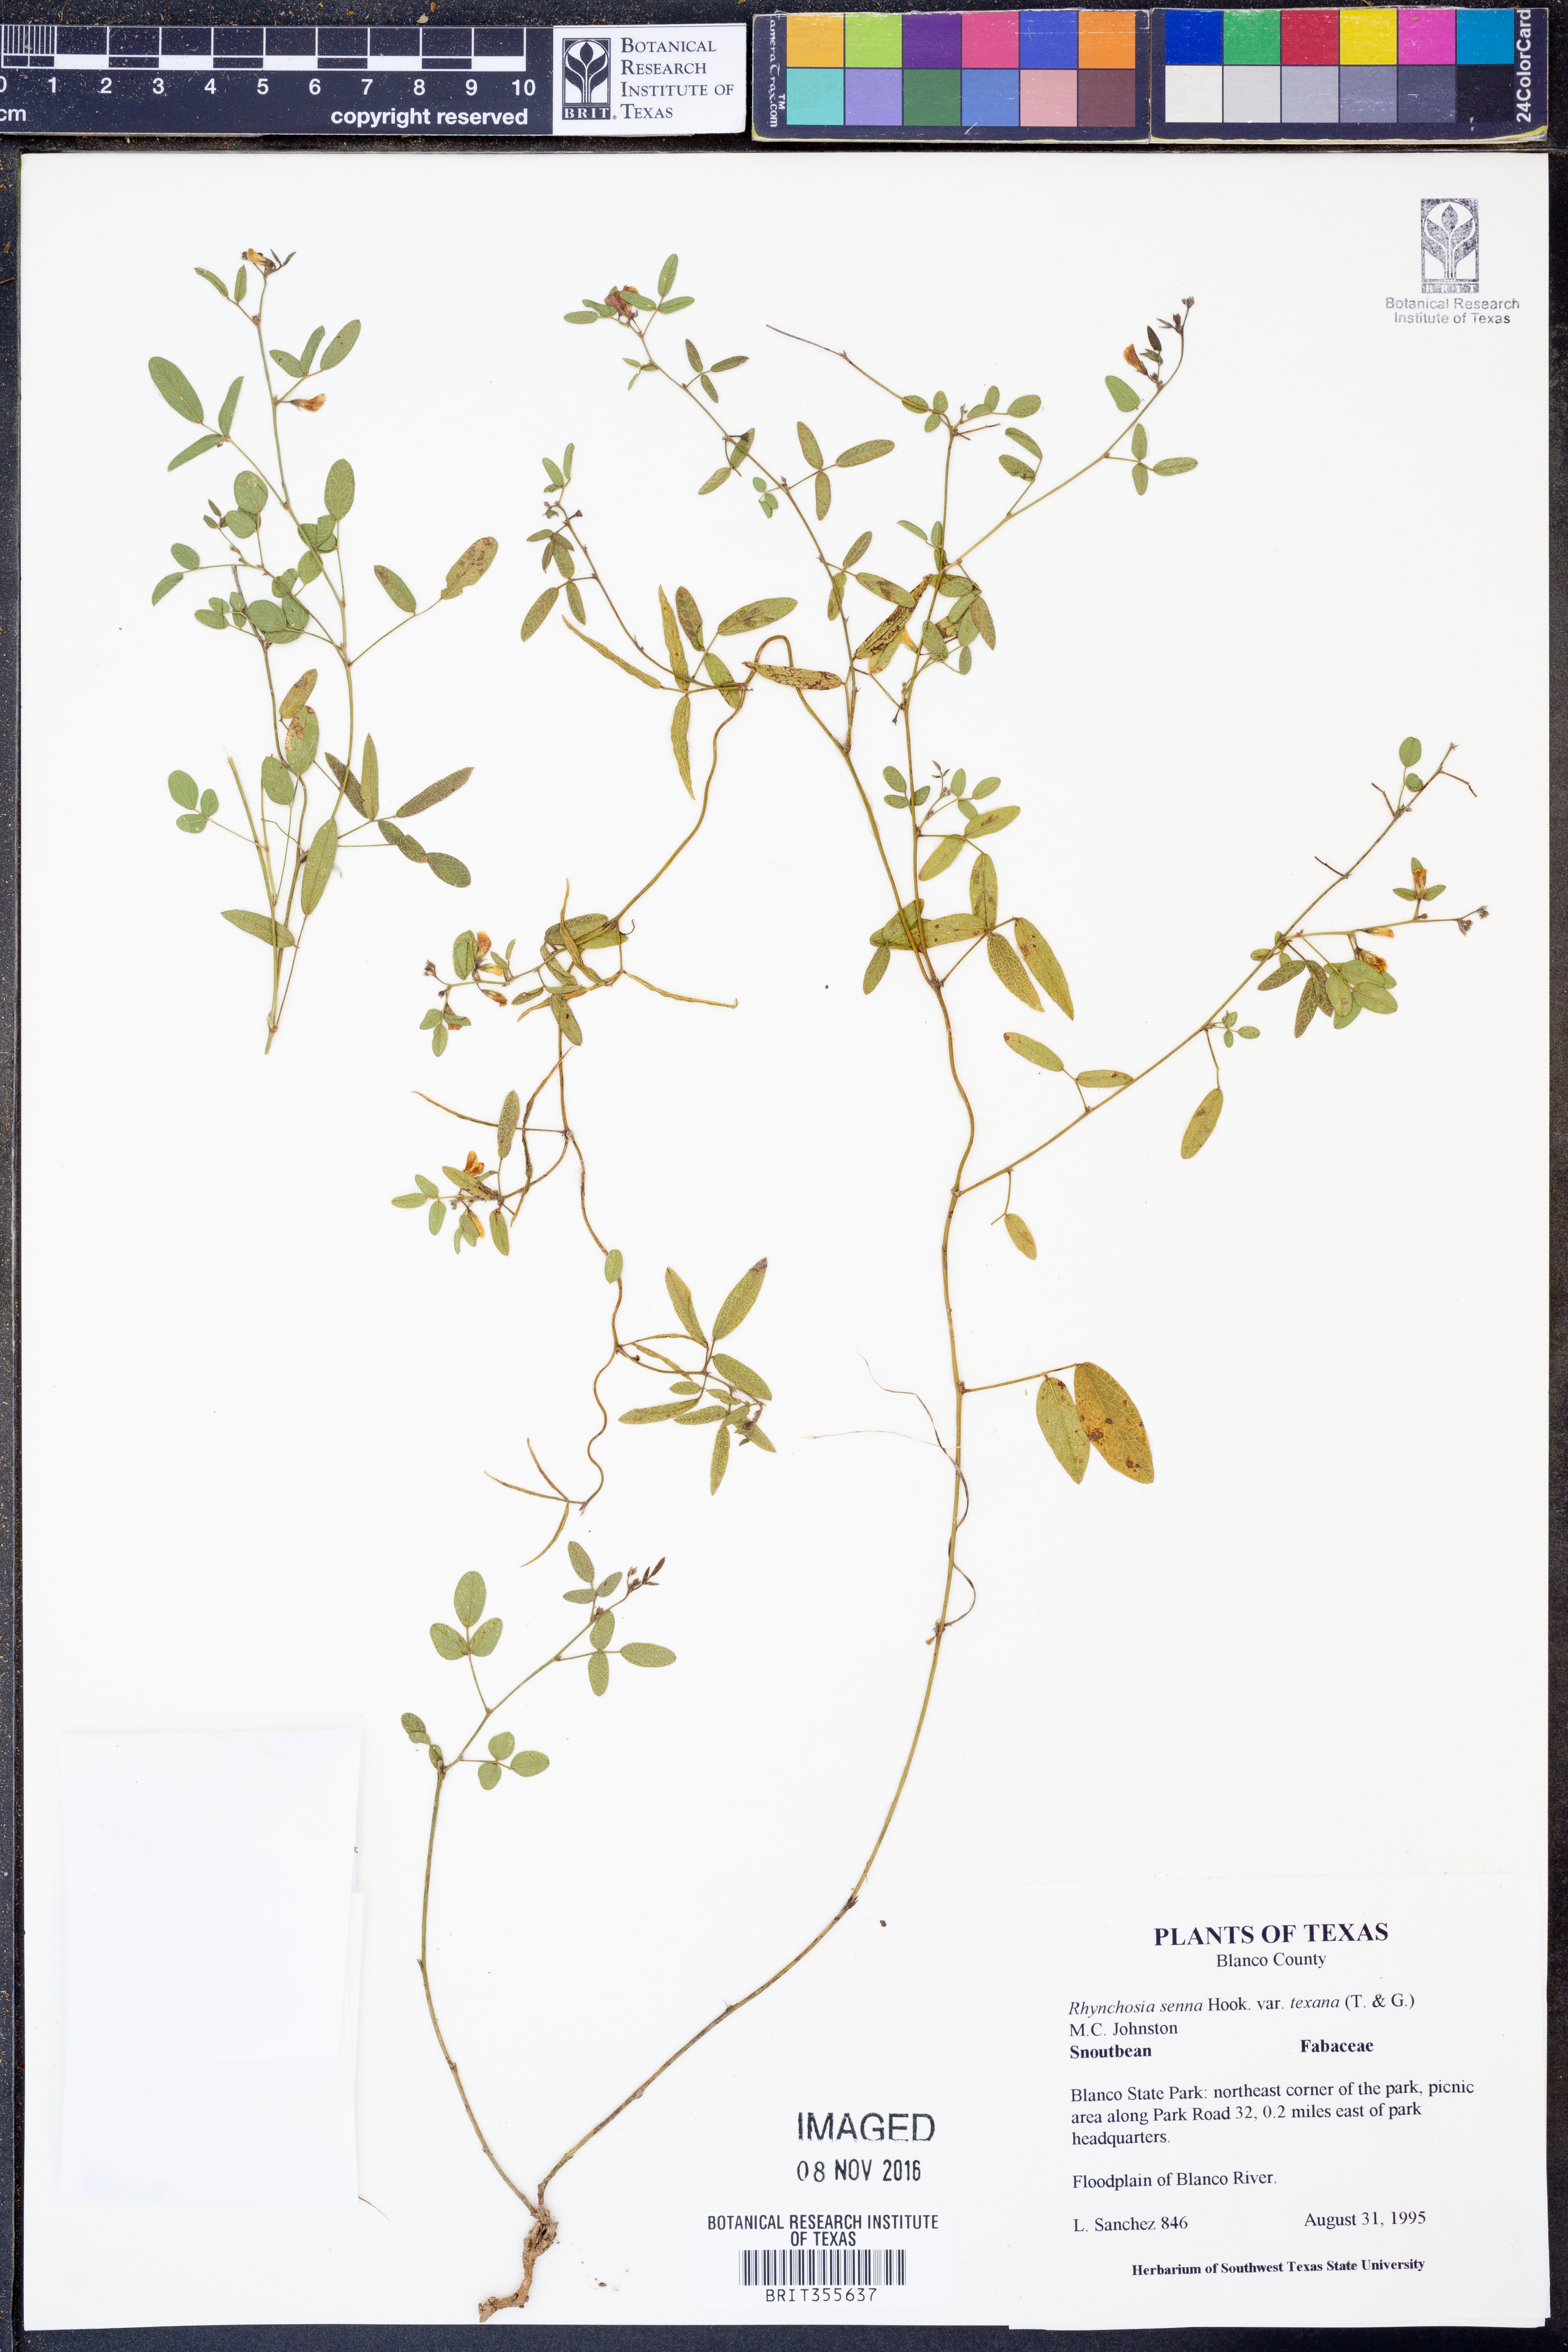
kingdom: Plantae
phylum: Tracheophyta
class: Magnoliopsida
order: Fabales
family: Fabaceae
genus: Rhynchosia
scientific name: Rhynchosia senna
